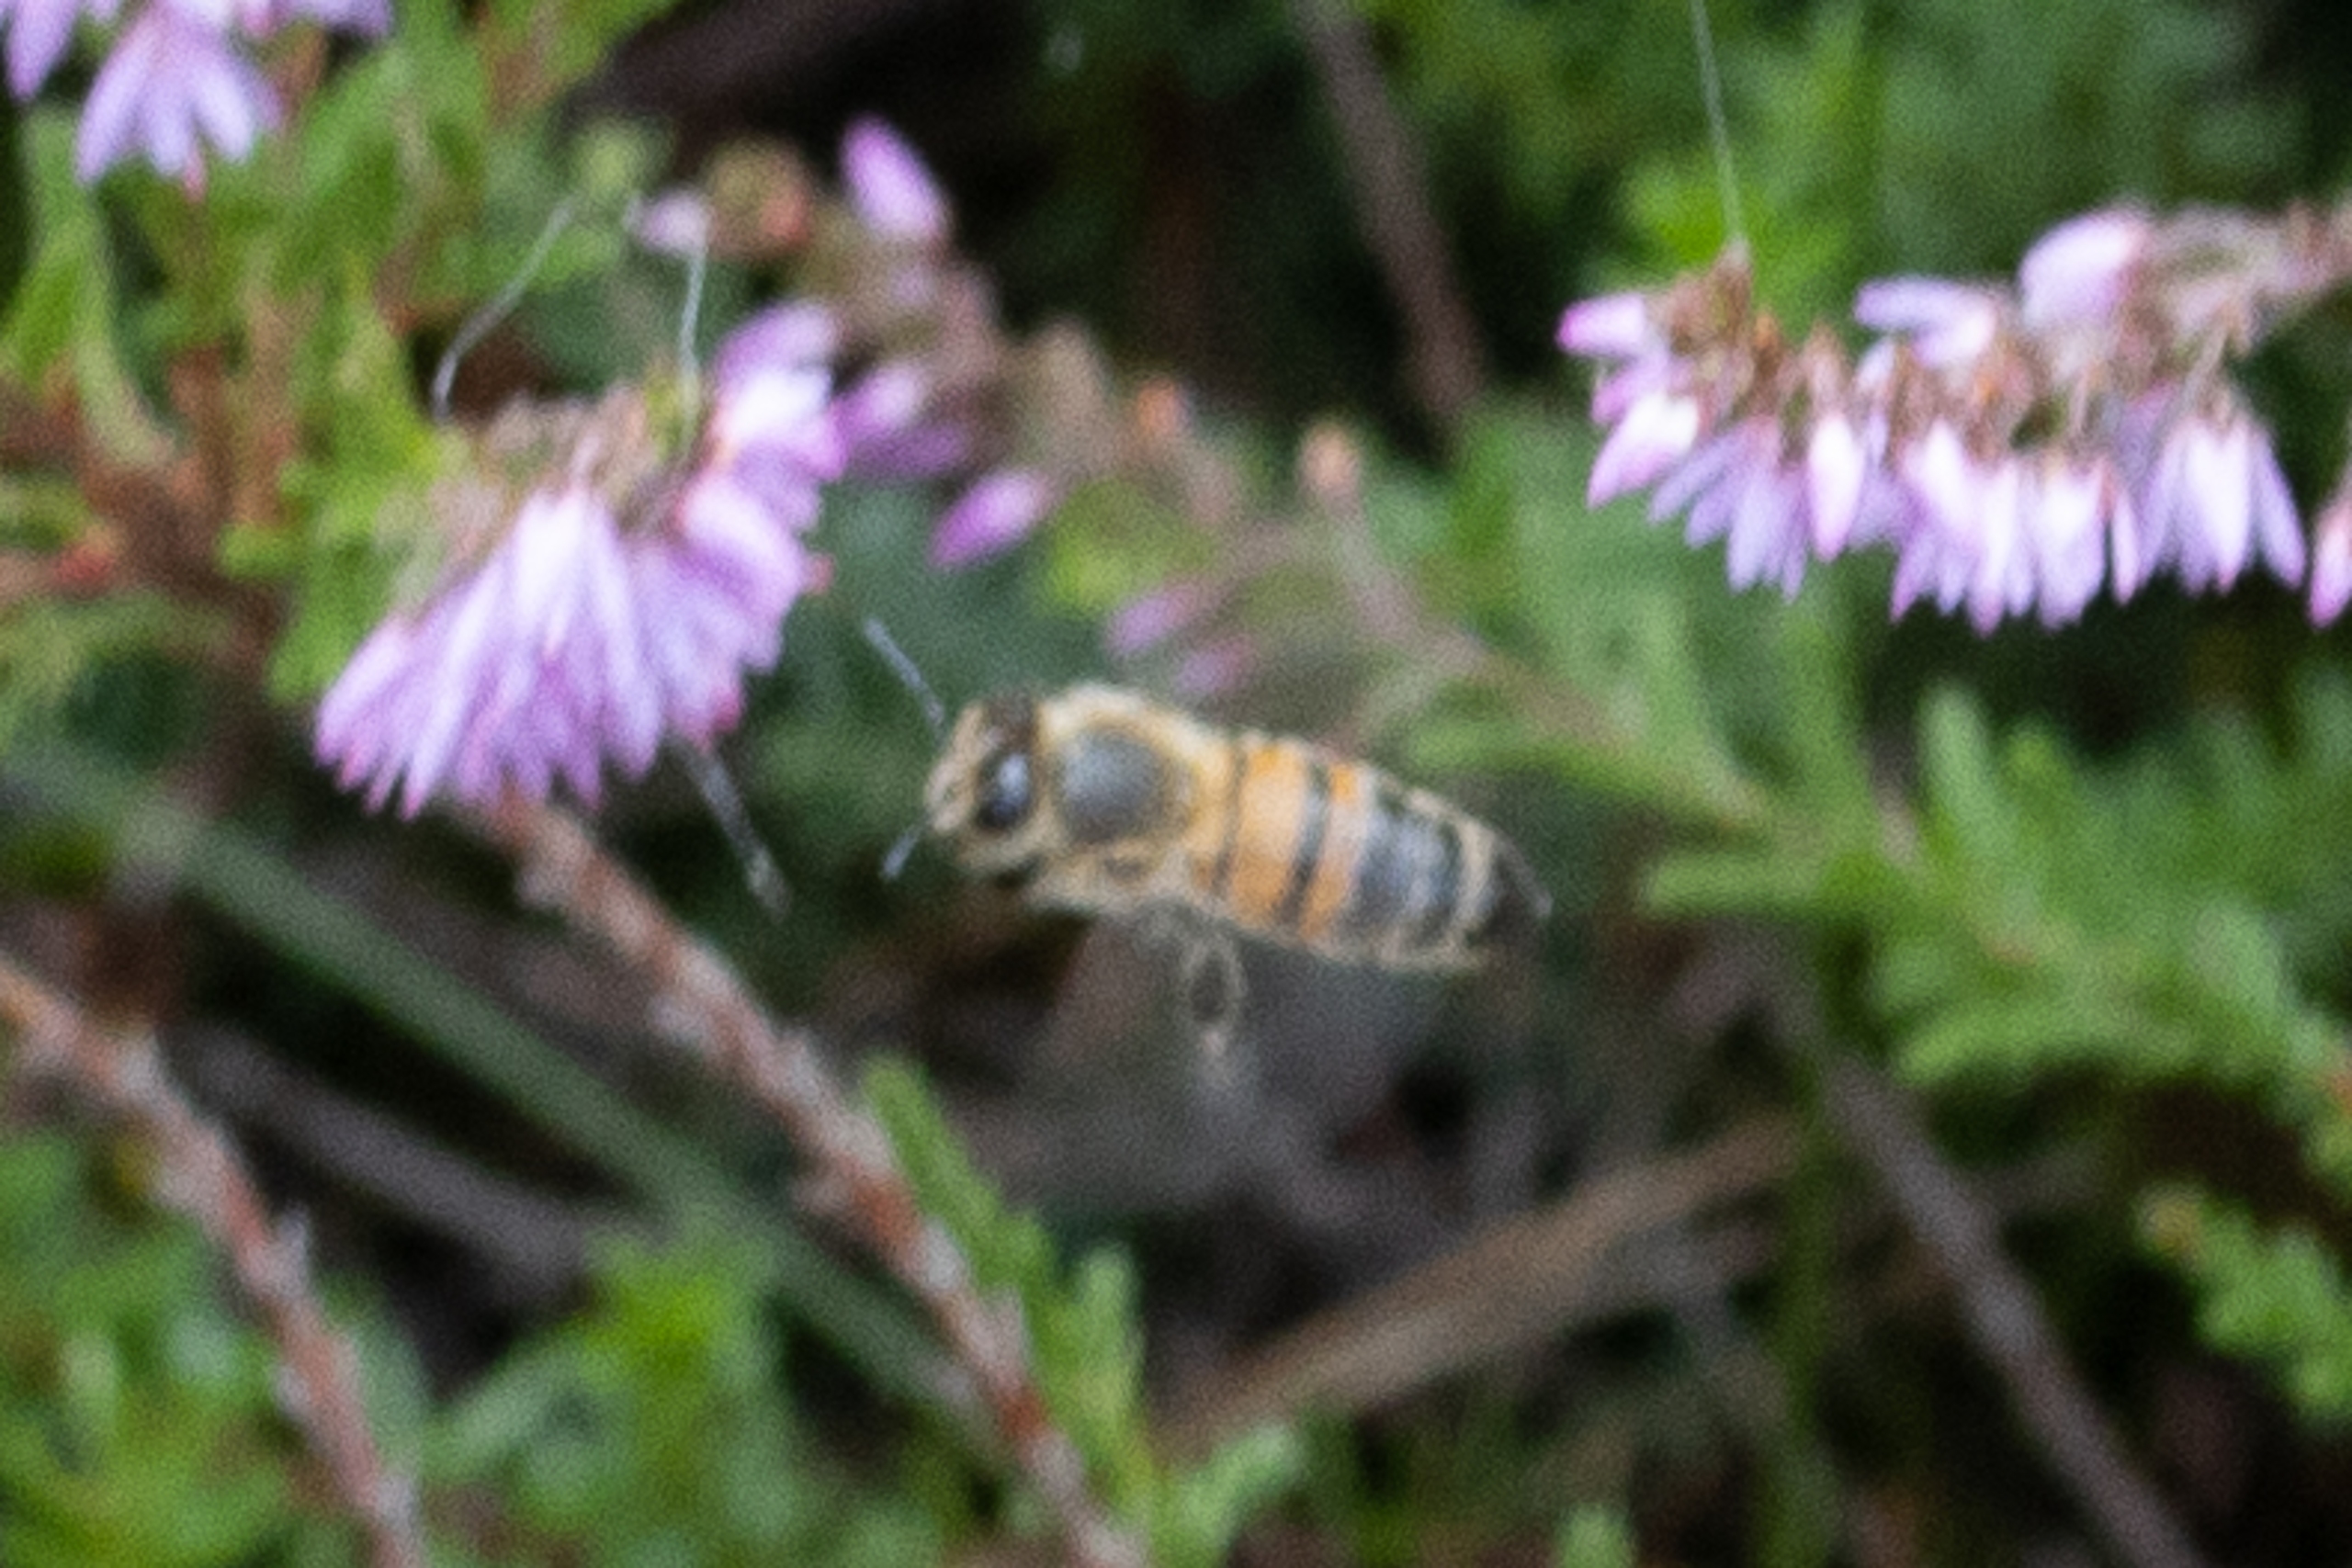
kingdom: Animalia
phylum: Arthropoda
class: Insecta
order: Hymenoptera
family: Apidae
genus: Apis
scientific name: Apis mellifera
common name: Honningbi
